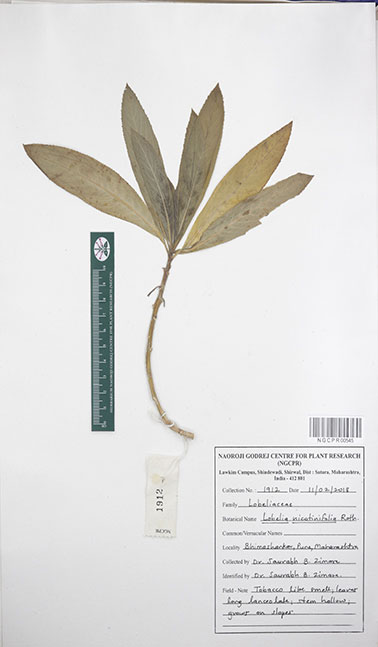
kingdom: Plantae
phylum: Tracheophyta
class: Magnoliopsida
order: Asterales
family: Campanulaceae
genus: Lobelia
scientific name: Lobelia nicotianifolia
